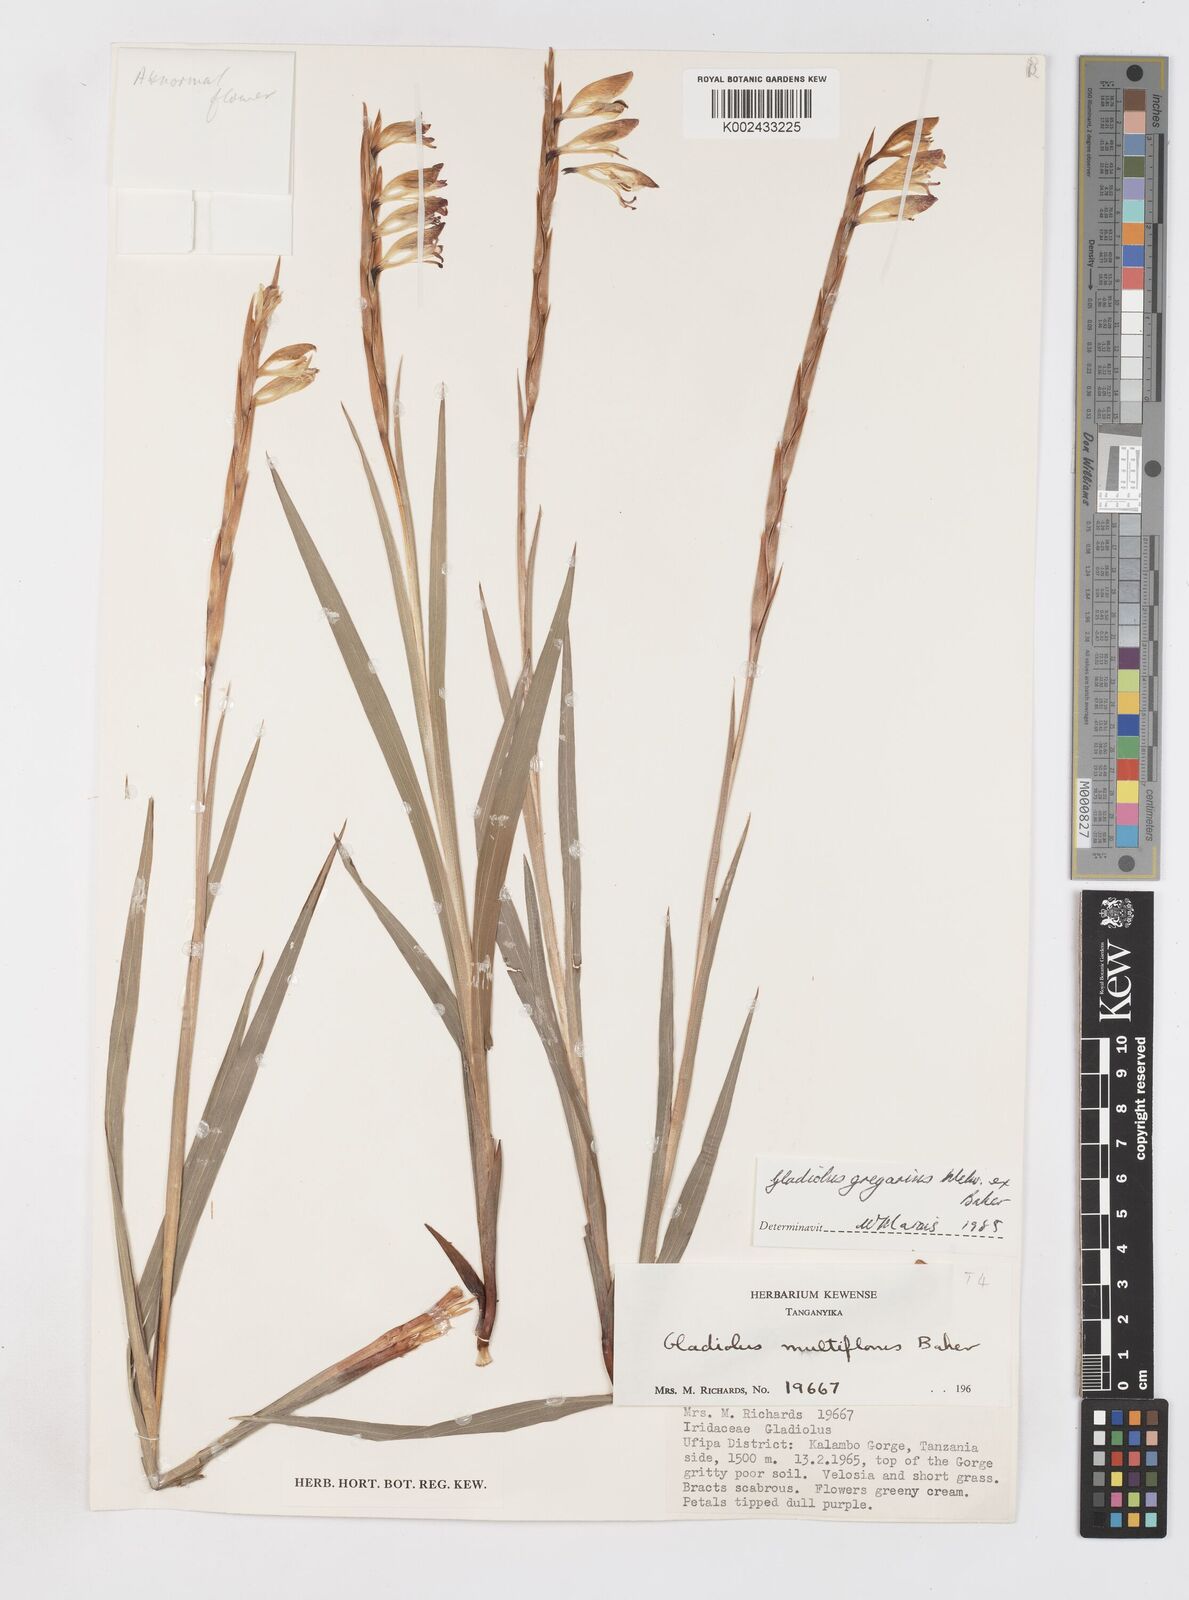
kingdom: Plantae
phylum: Tracheophyta
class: Liliopsida
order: Asparagales
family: Iridaceae
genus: Gladiolus
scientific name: Gladiolus gregarius
